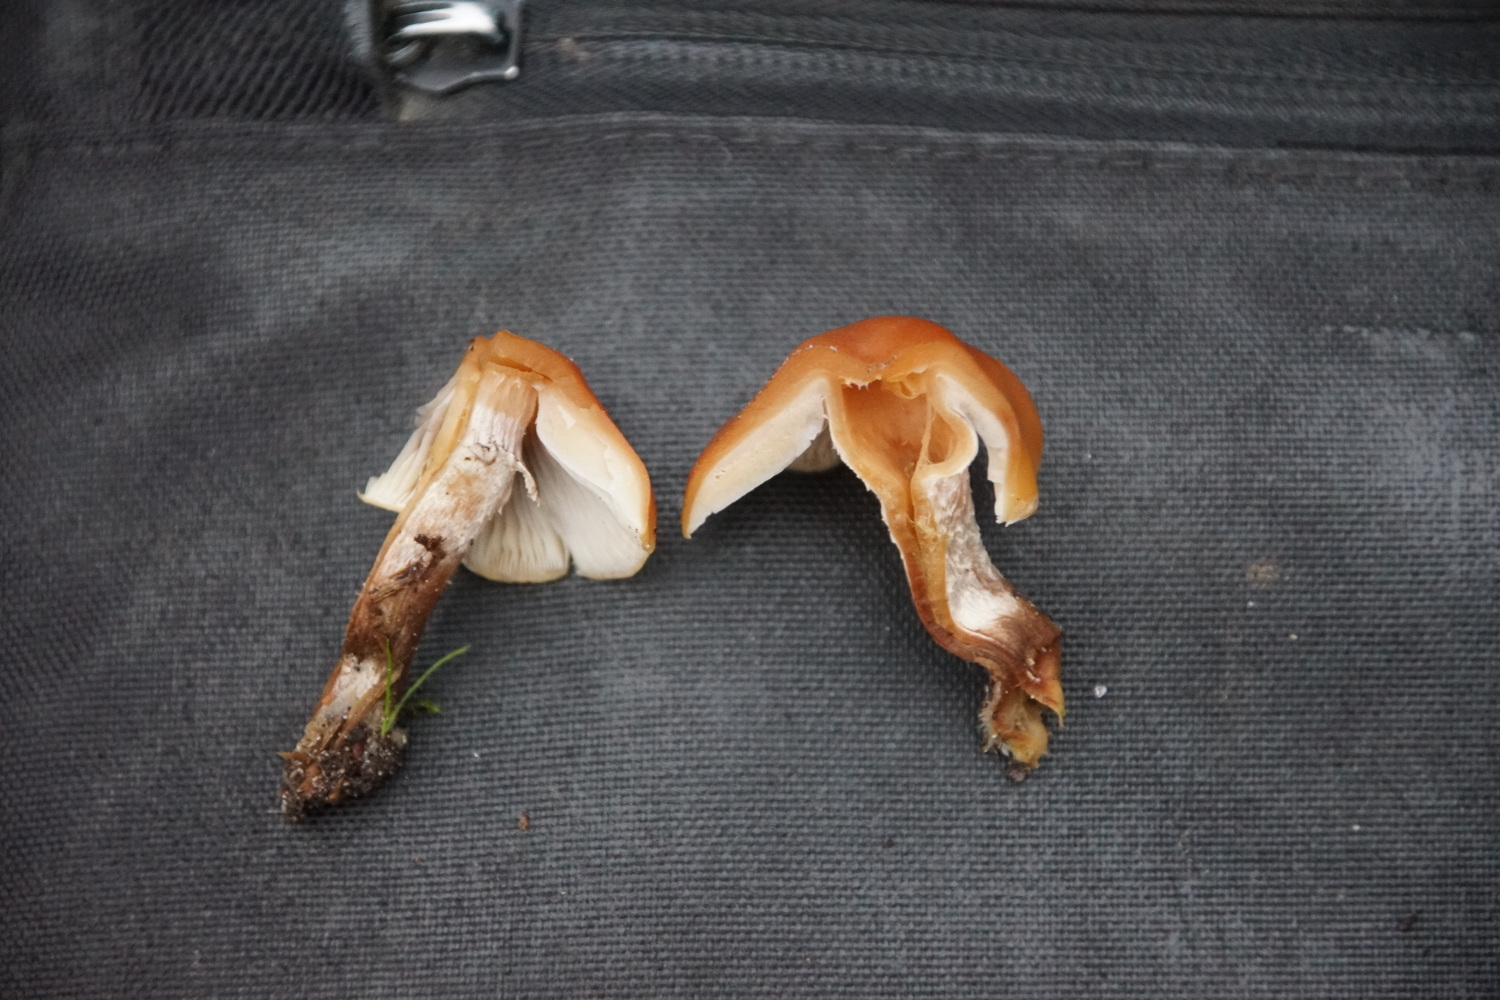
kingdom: Fungi
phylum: Basidiomycota
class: Agaricomycetes
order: Agaricales
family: Strophariaceae
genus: Hypholoma
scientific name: Hypholoma
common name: svovlhat
